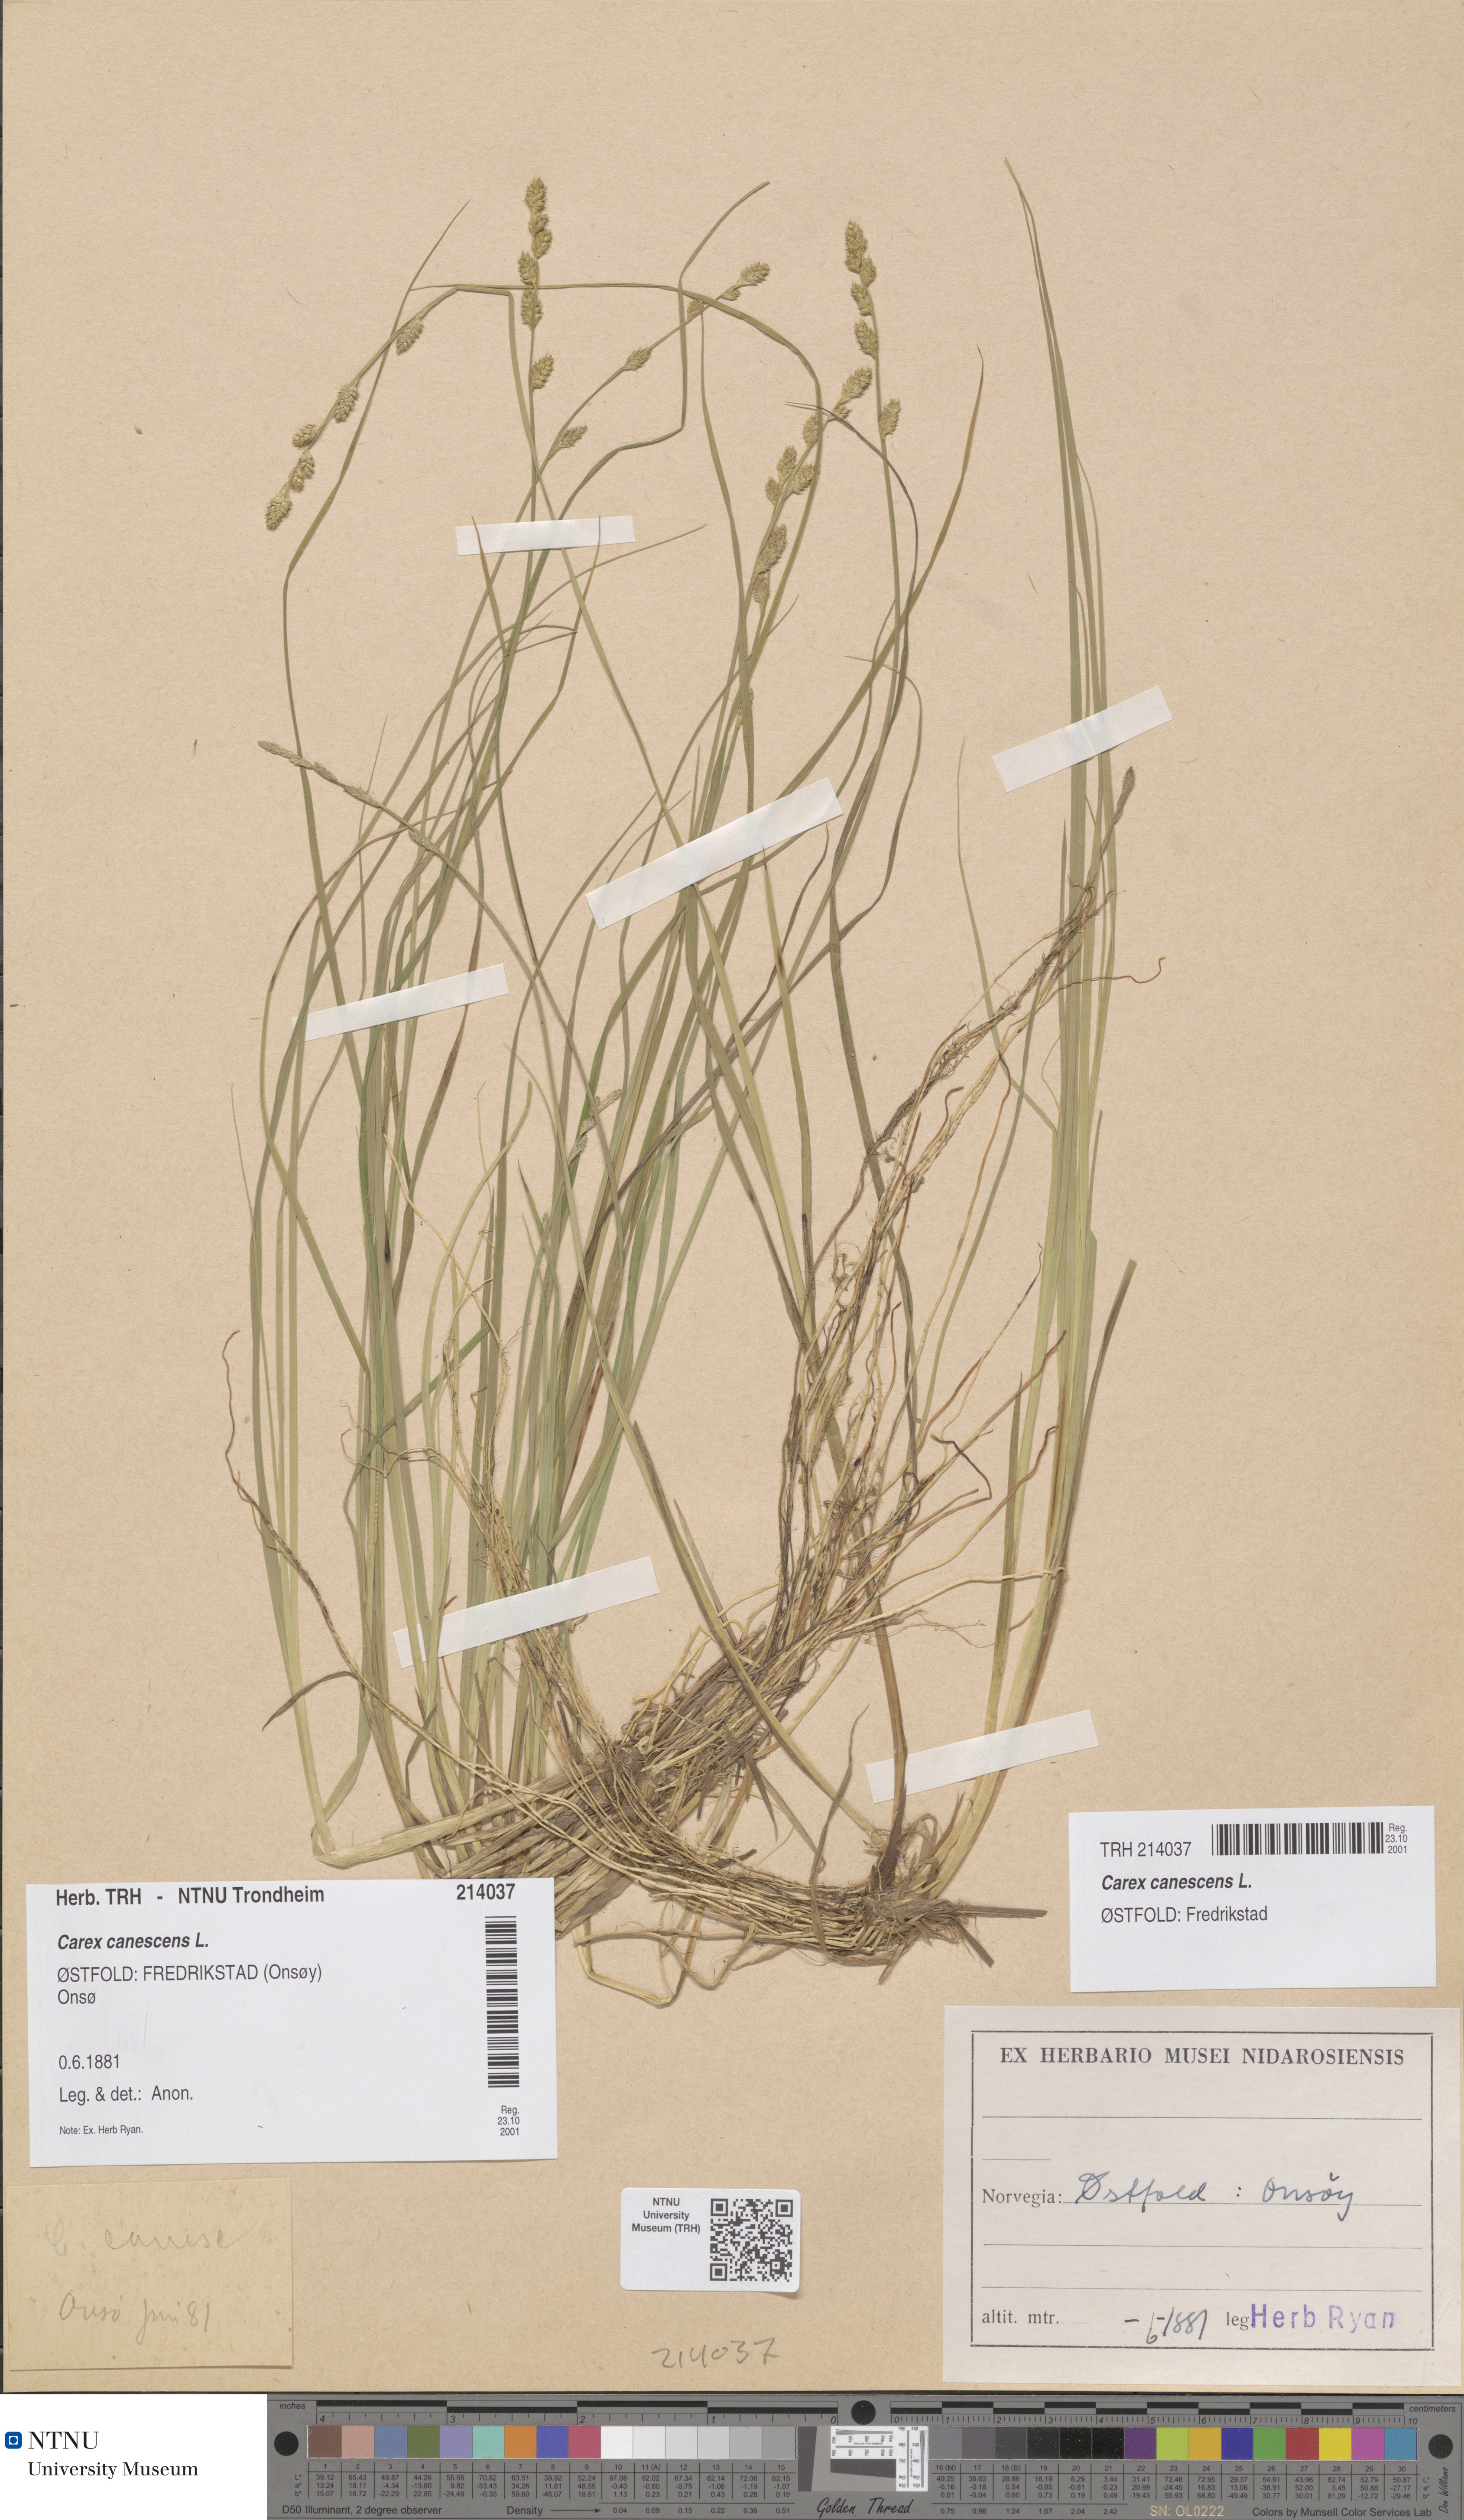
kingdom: Plantae
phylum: Tracheophyta
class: Liliopsida
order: Poales
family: Cyperaceae
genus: Carex
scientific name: Carex canescens
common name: White sedge
